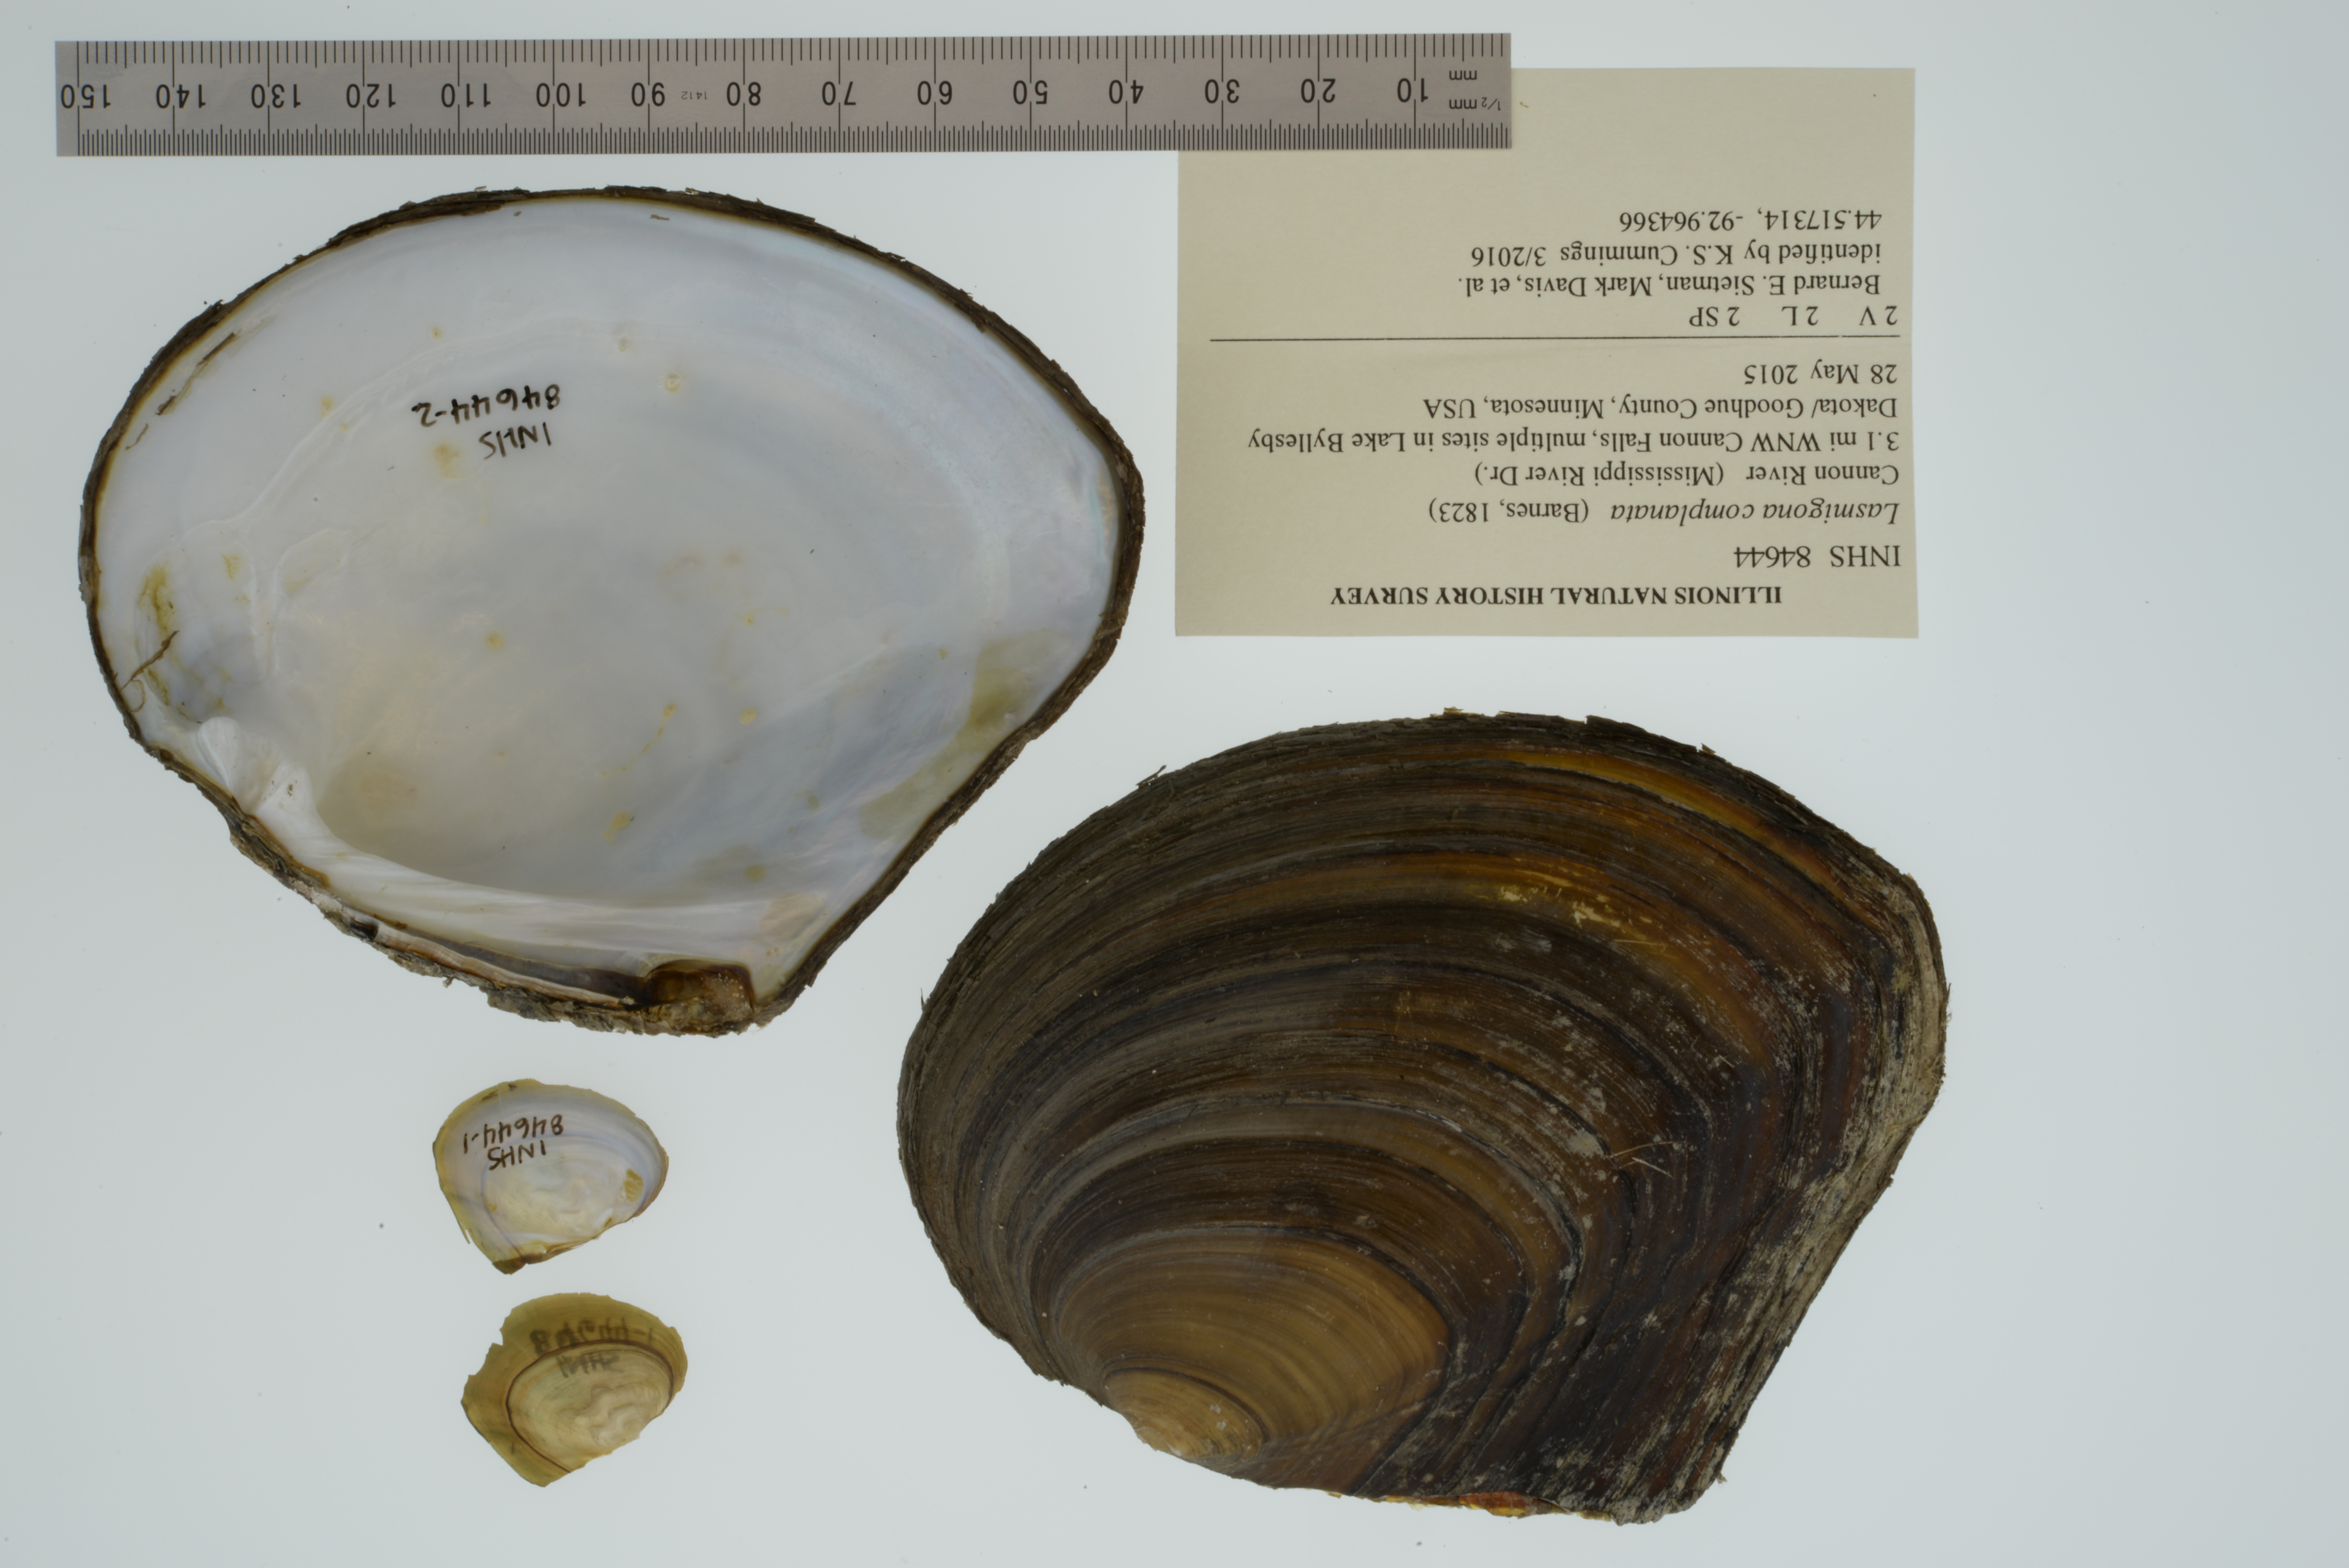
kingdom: Animalia
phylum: Mollusca
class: Bivalvia
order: Unionida
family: Unionidae
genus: Lasmigona
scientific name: Lasmigona complanata
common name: White heelsplitter
